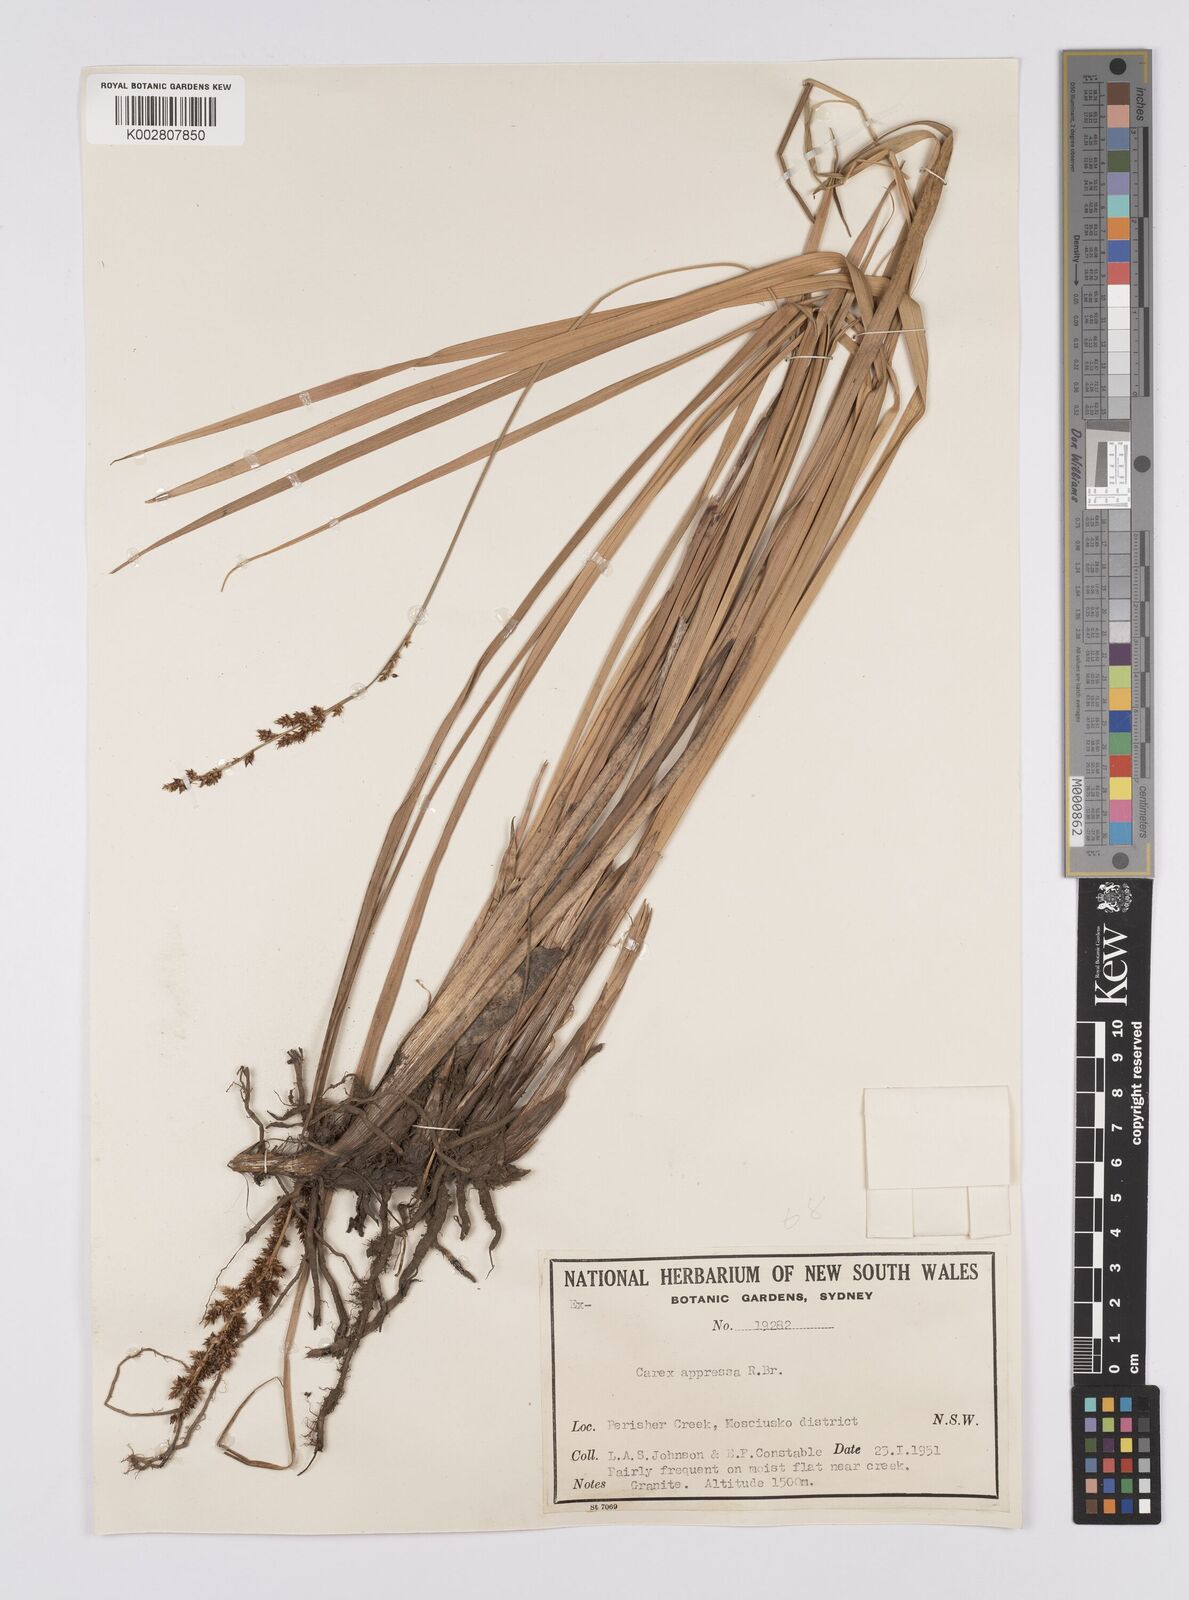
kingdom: Plantae
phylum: Tracheophyta
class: Liliopsida
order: Poales
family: Cyperaceae
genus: Carex
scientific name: Carex appressa
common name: Tussock sedge
